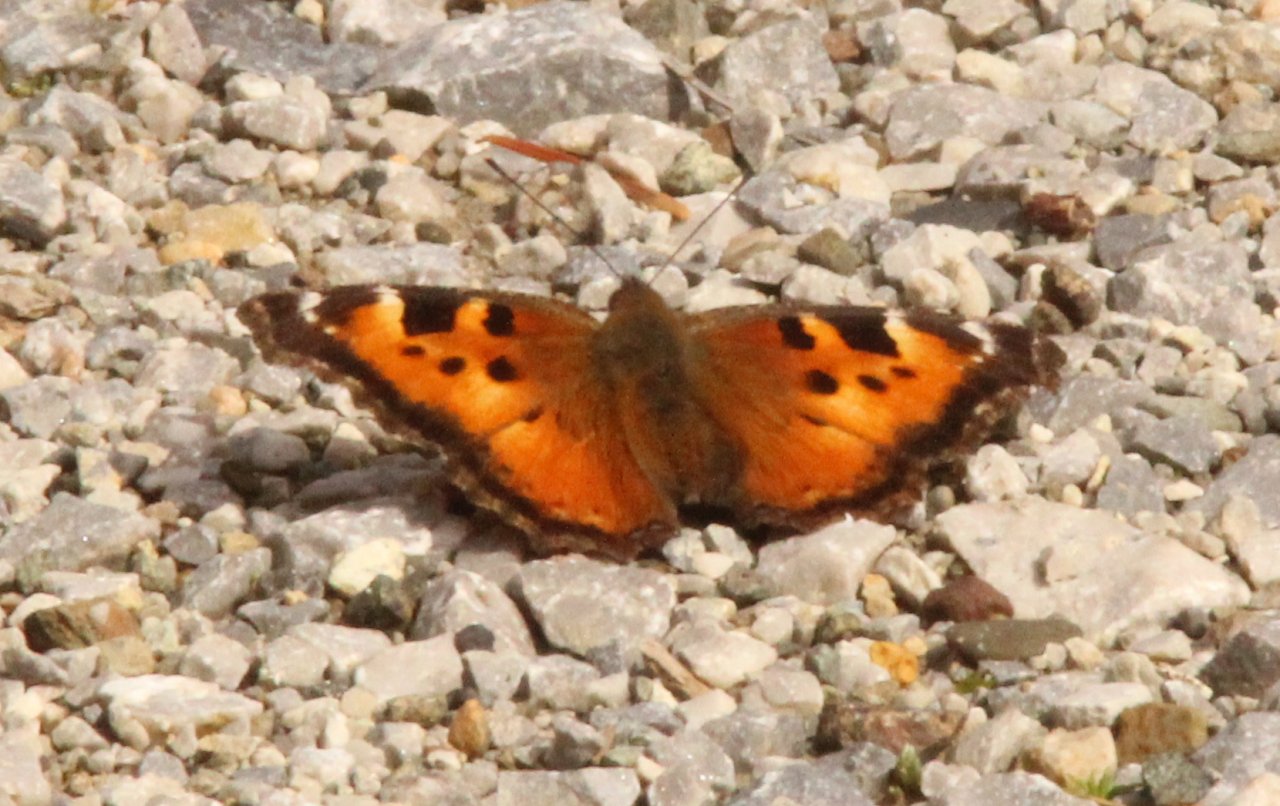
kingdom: Animalia
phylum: Arthropoda
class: Insecta
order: Lepidoptera
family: Nymphalidae
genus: Nymphalis
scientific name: Nymphalis californica
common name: California Tortoiseshell
